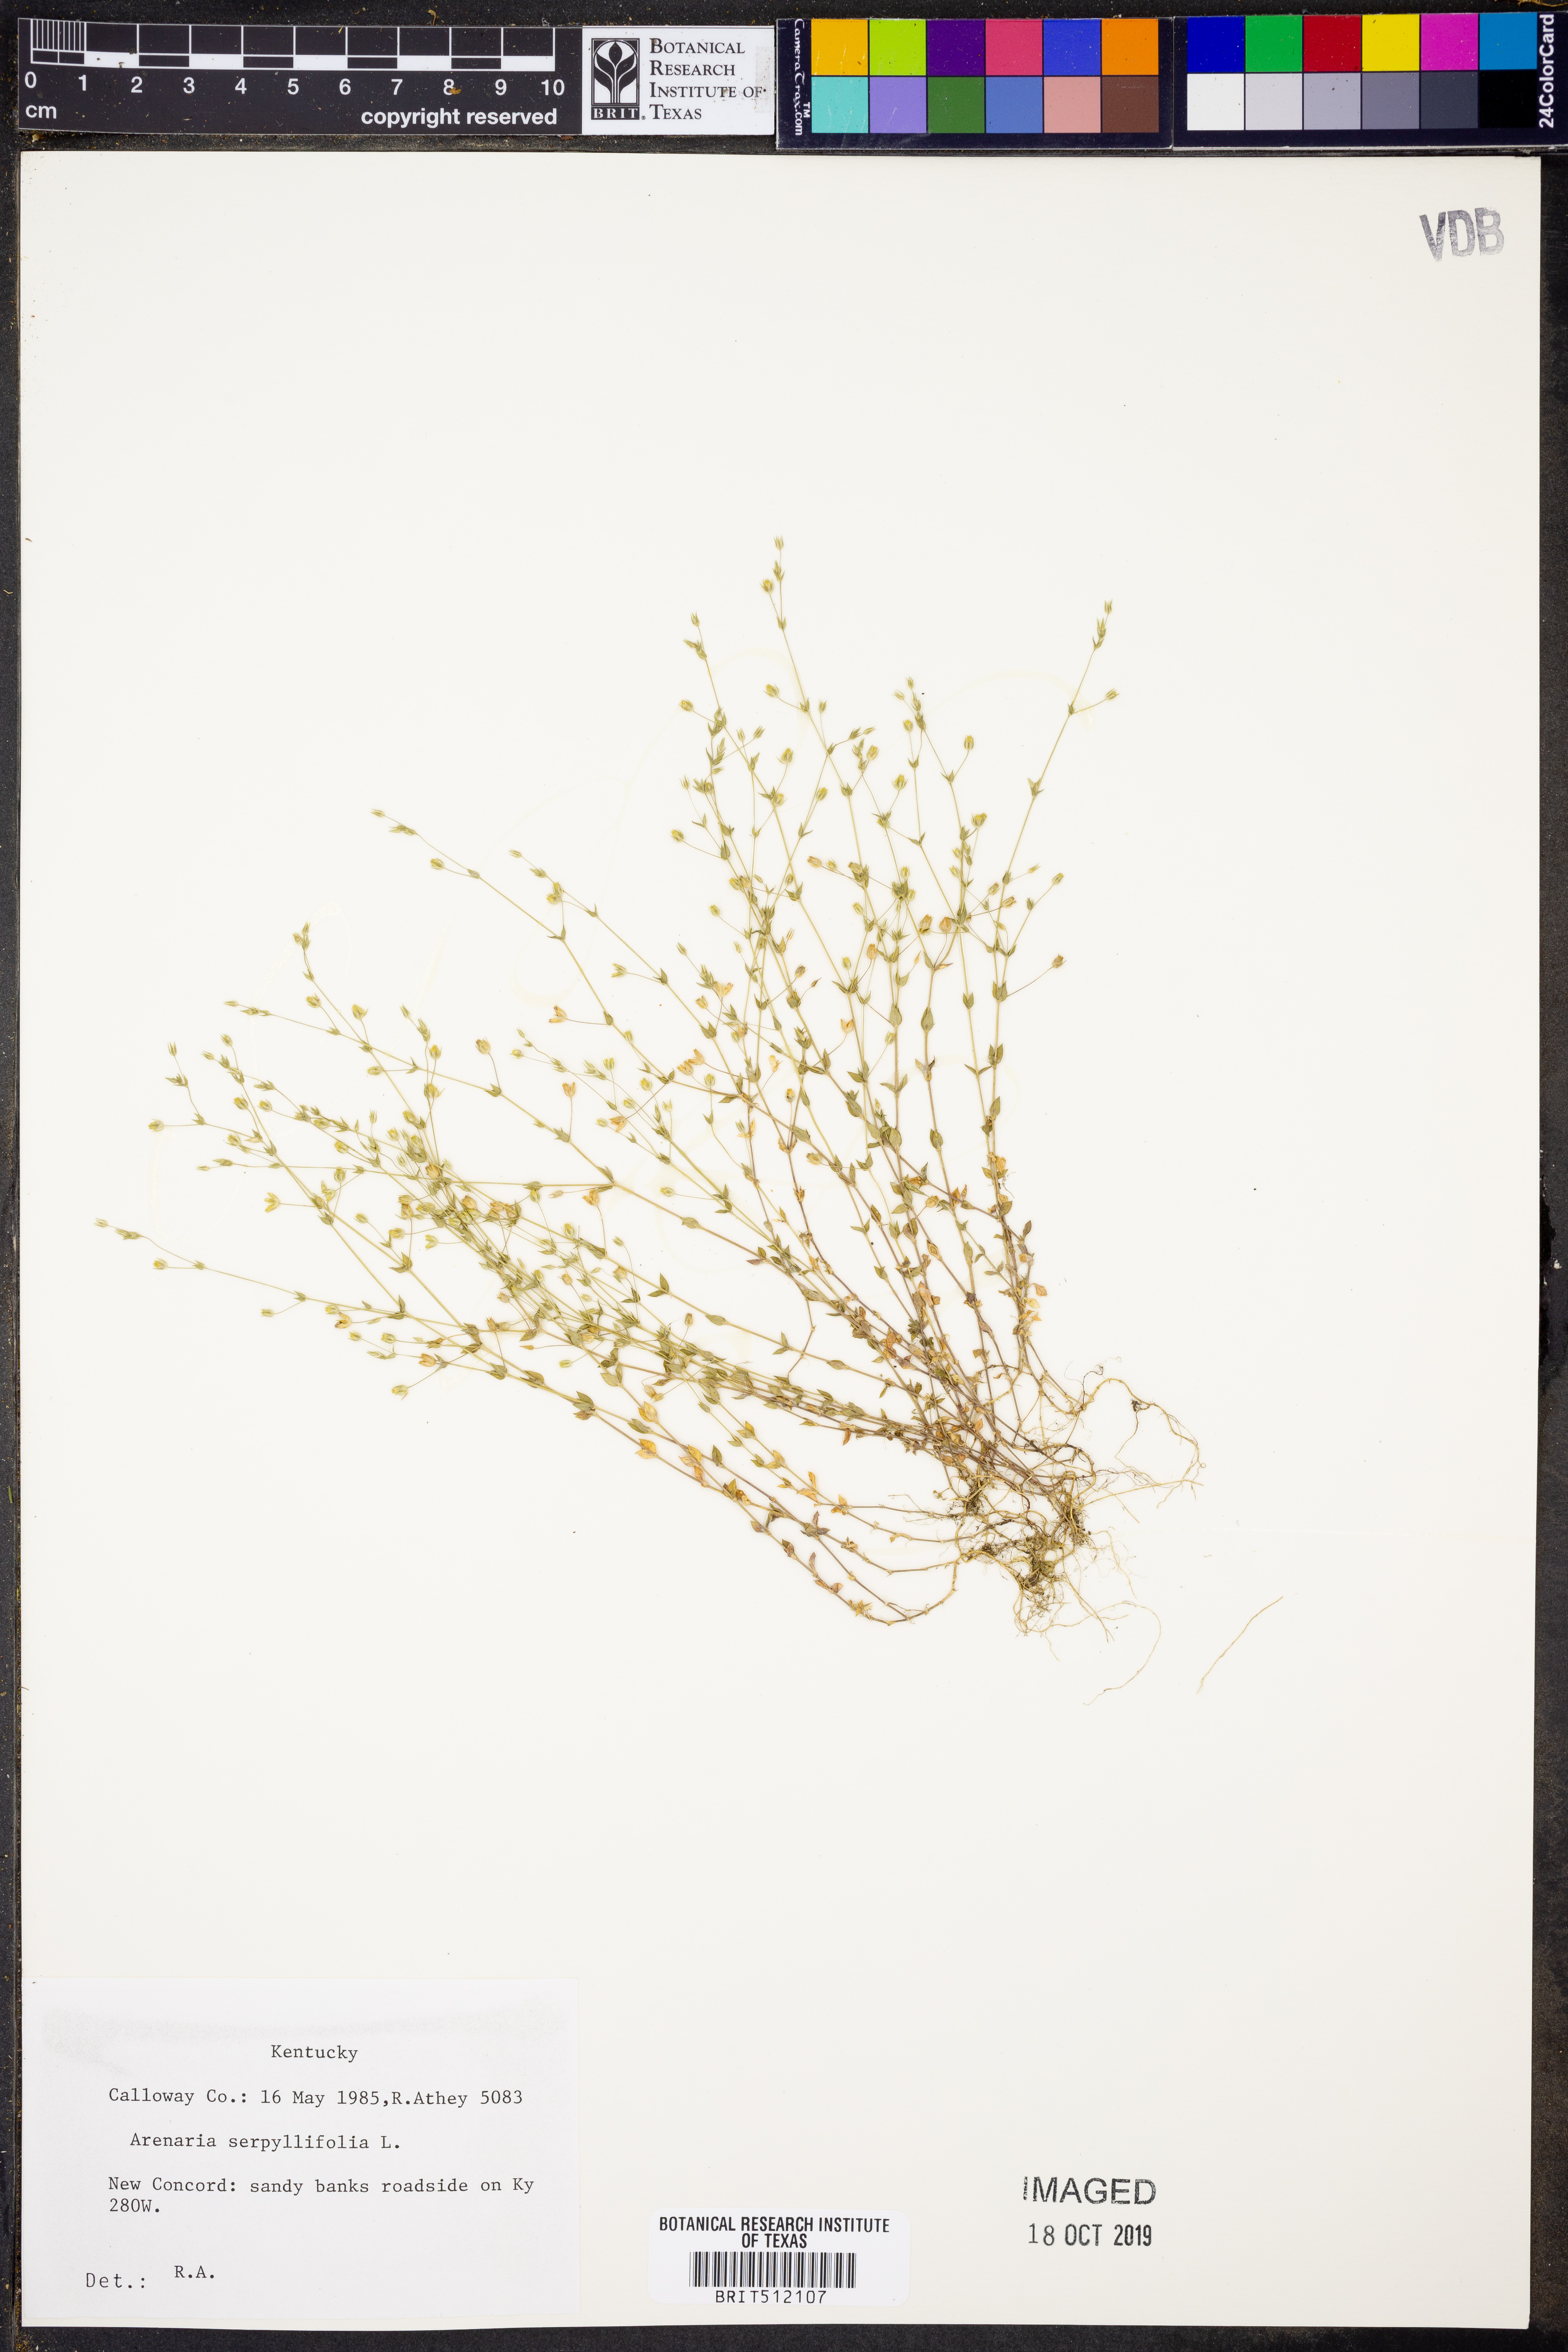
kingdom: Plantae
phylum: Tracheophyta
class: Magnoliopsida
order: Caryophyllales
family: Caryophyllaceae
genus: Arenaria
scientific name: Arenaria serpyllifolia
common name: Thyme-leaved sandwort
